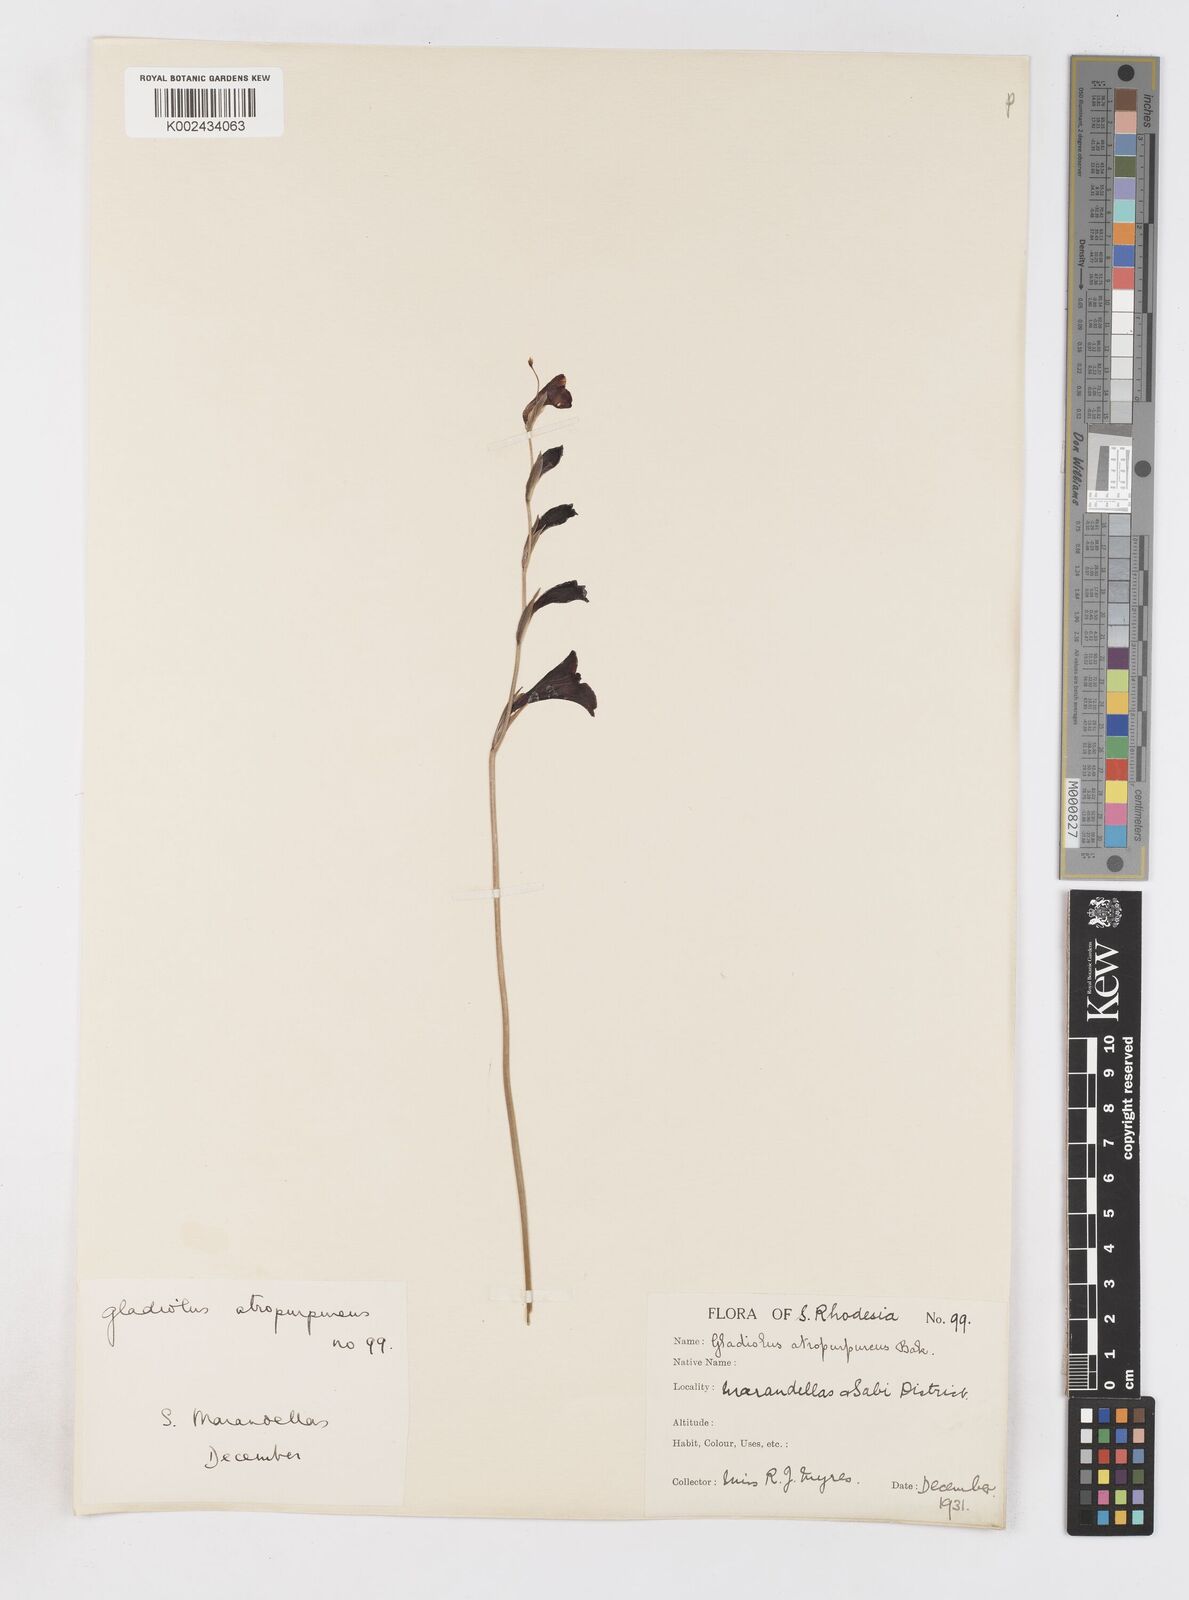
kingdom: Plantae
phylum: Tracheophyta
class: Liliopsida
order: Asparagales
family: Iridaceae
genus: Gladiolus
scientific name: Gladiolus atropurpureus
